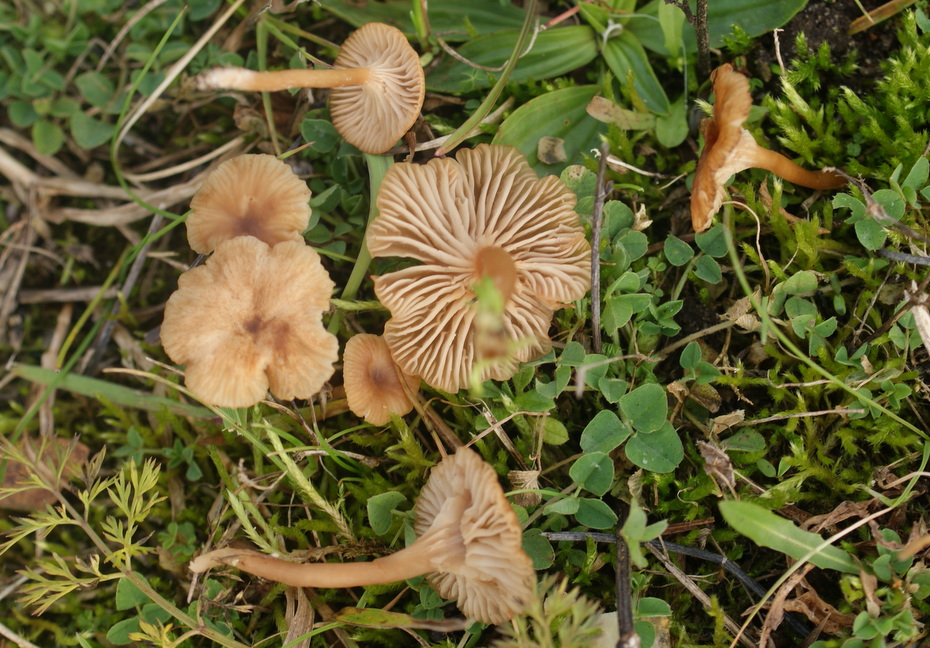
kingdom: Fungi
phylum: Basidiomycota
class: Agaricomycetes
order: Agaricales
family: Tricholomataceae
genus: Omphalina
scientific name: Omphalina pyxidata
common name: rødbrun navlehat
